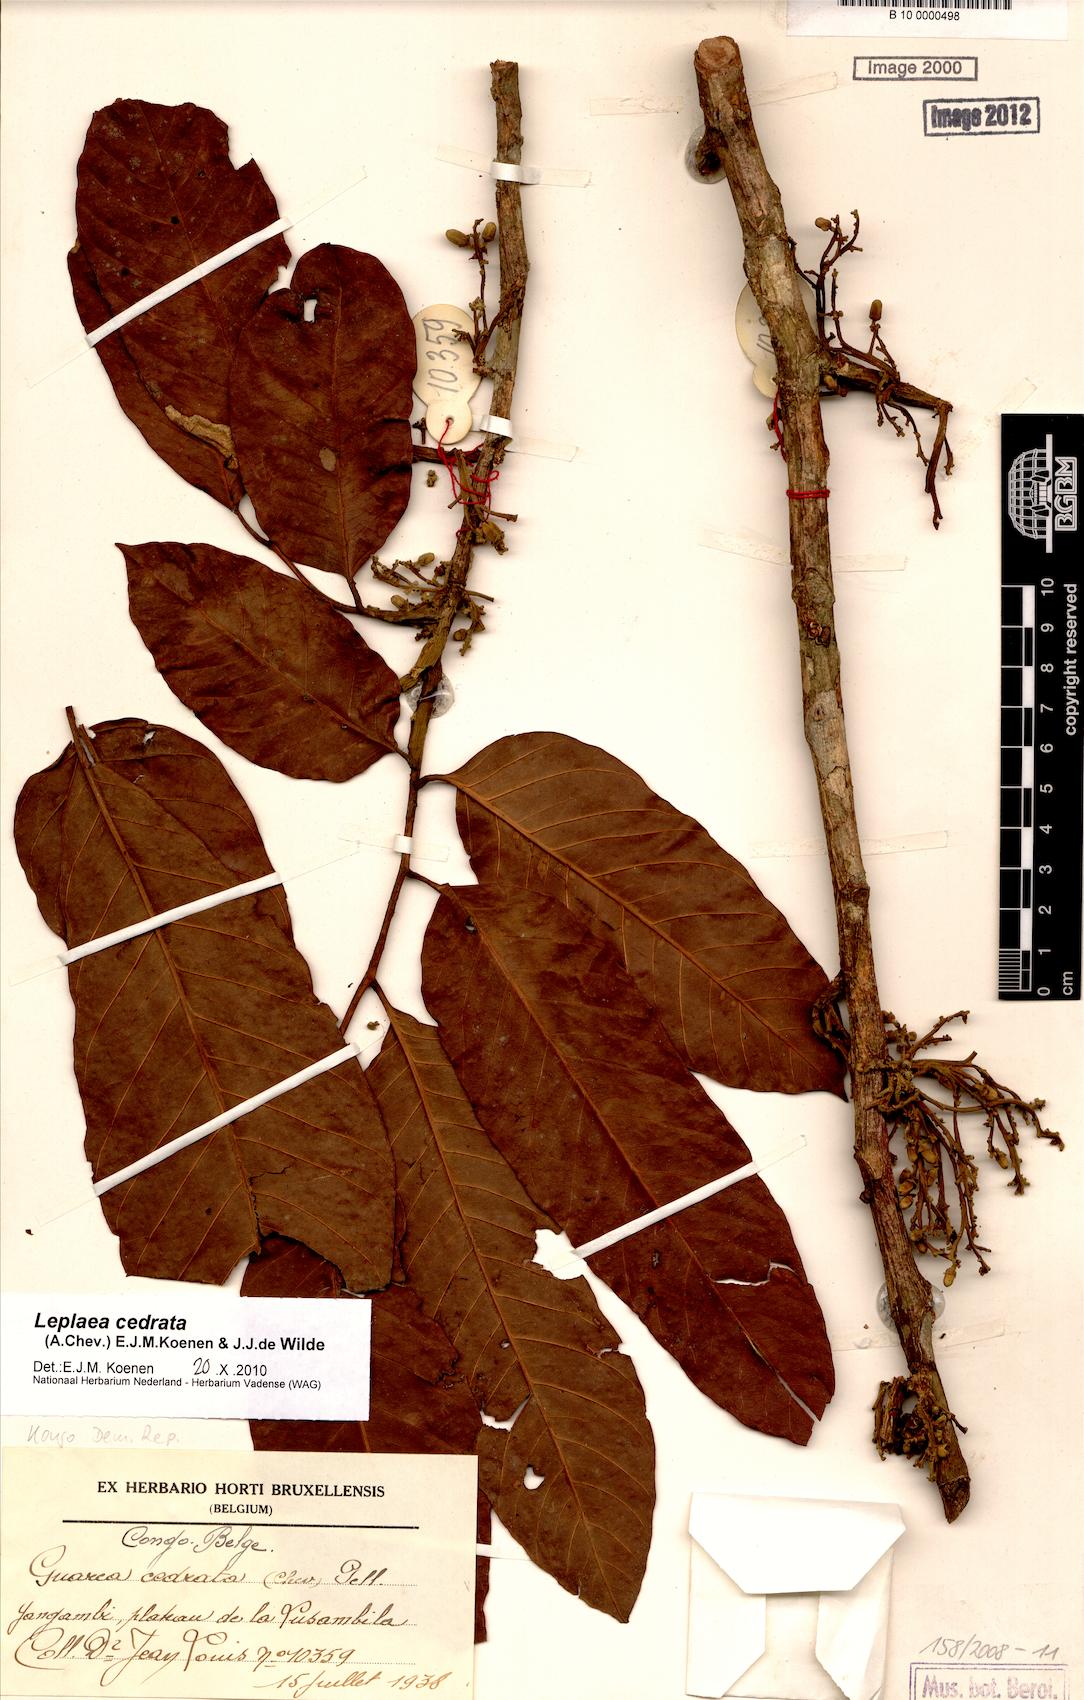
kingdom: Plantae
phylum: Tracheophyta
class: Magnoliopsida
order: Sapindales
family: Meliaceae
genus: Leplaea
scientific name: Leplaea cedrata
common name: Light bossé
